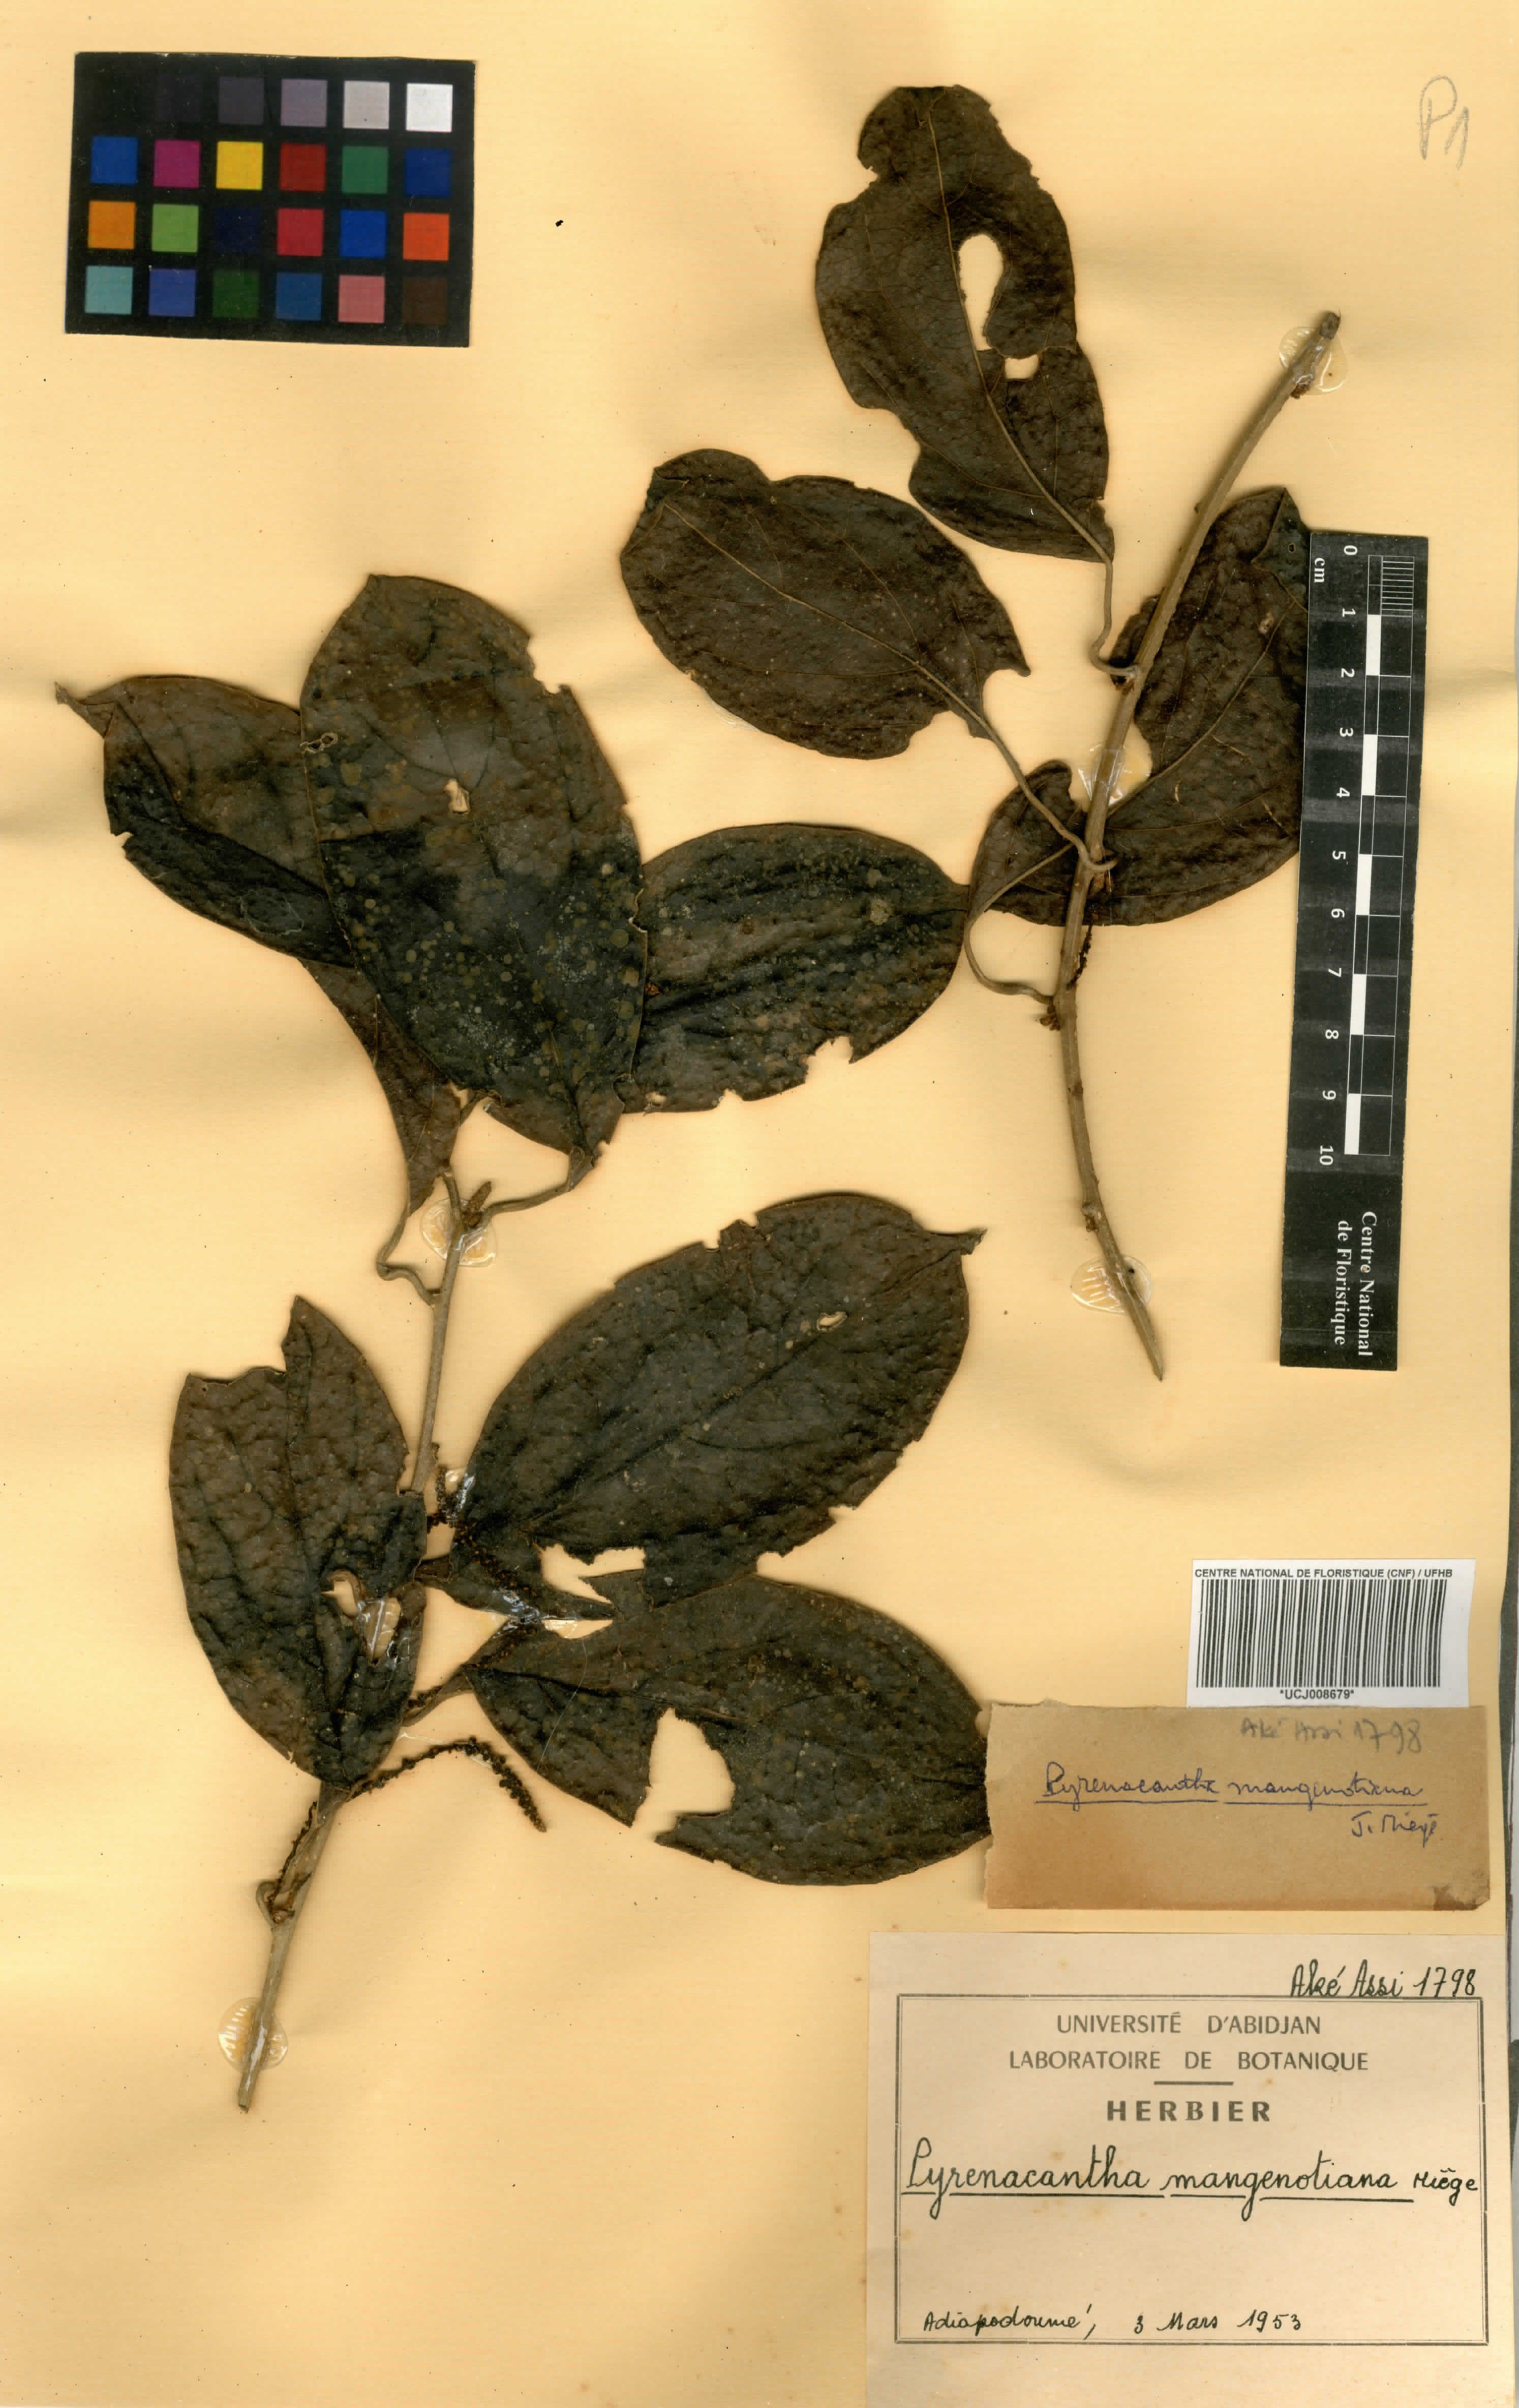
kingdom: Plantae
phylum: Tracheophyta
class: Magnoliopsida
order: Icacinales
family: Icacinaceae
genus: Pyrenacantha
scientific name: Pyrenacantha glabrescens
